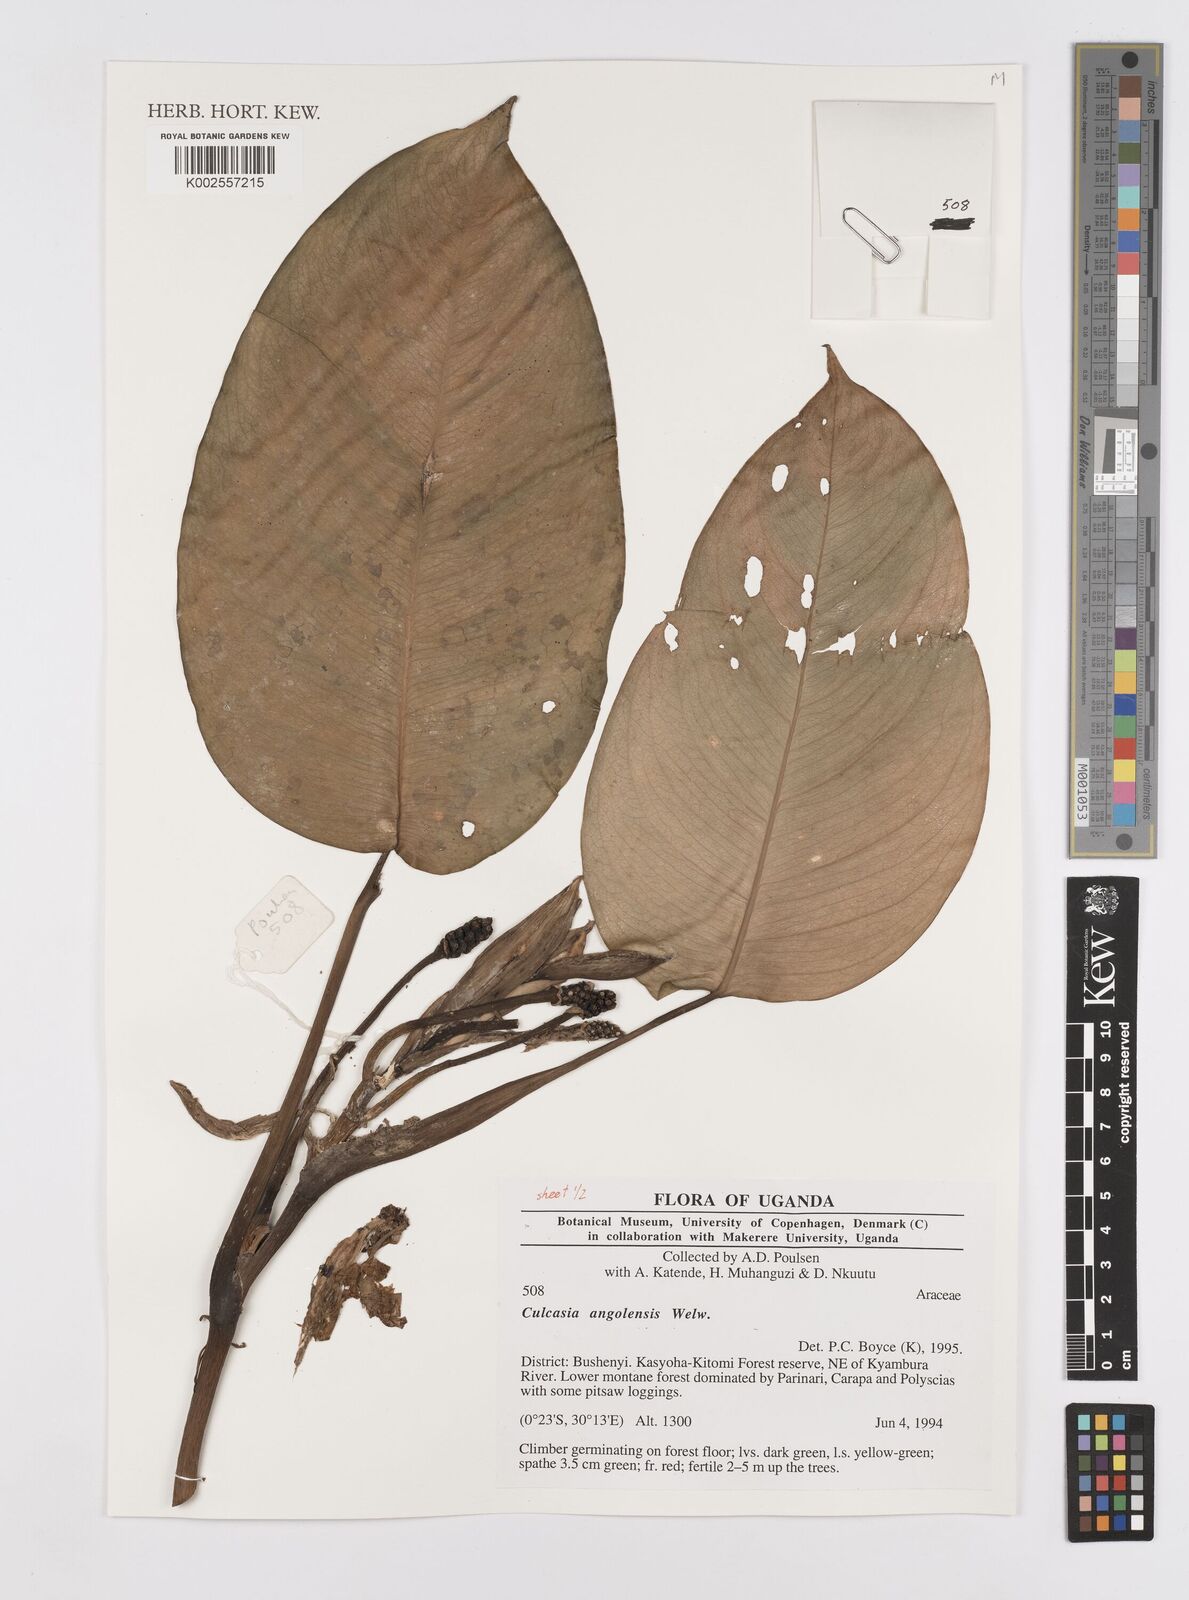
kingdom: Plantae
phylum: Tracheophyta
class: Liliopsida
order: Alismatales
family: Araceae
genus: Culcasia
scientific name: Culcasia angolensis
